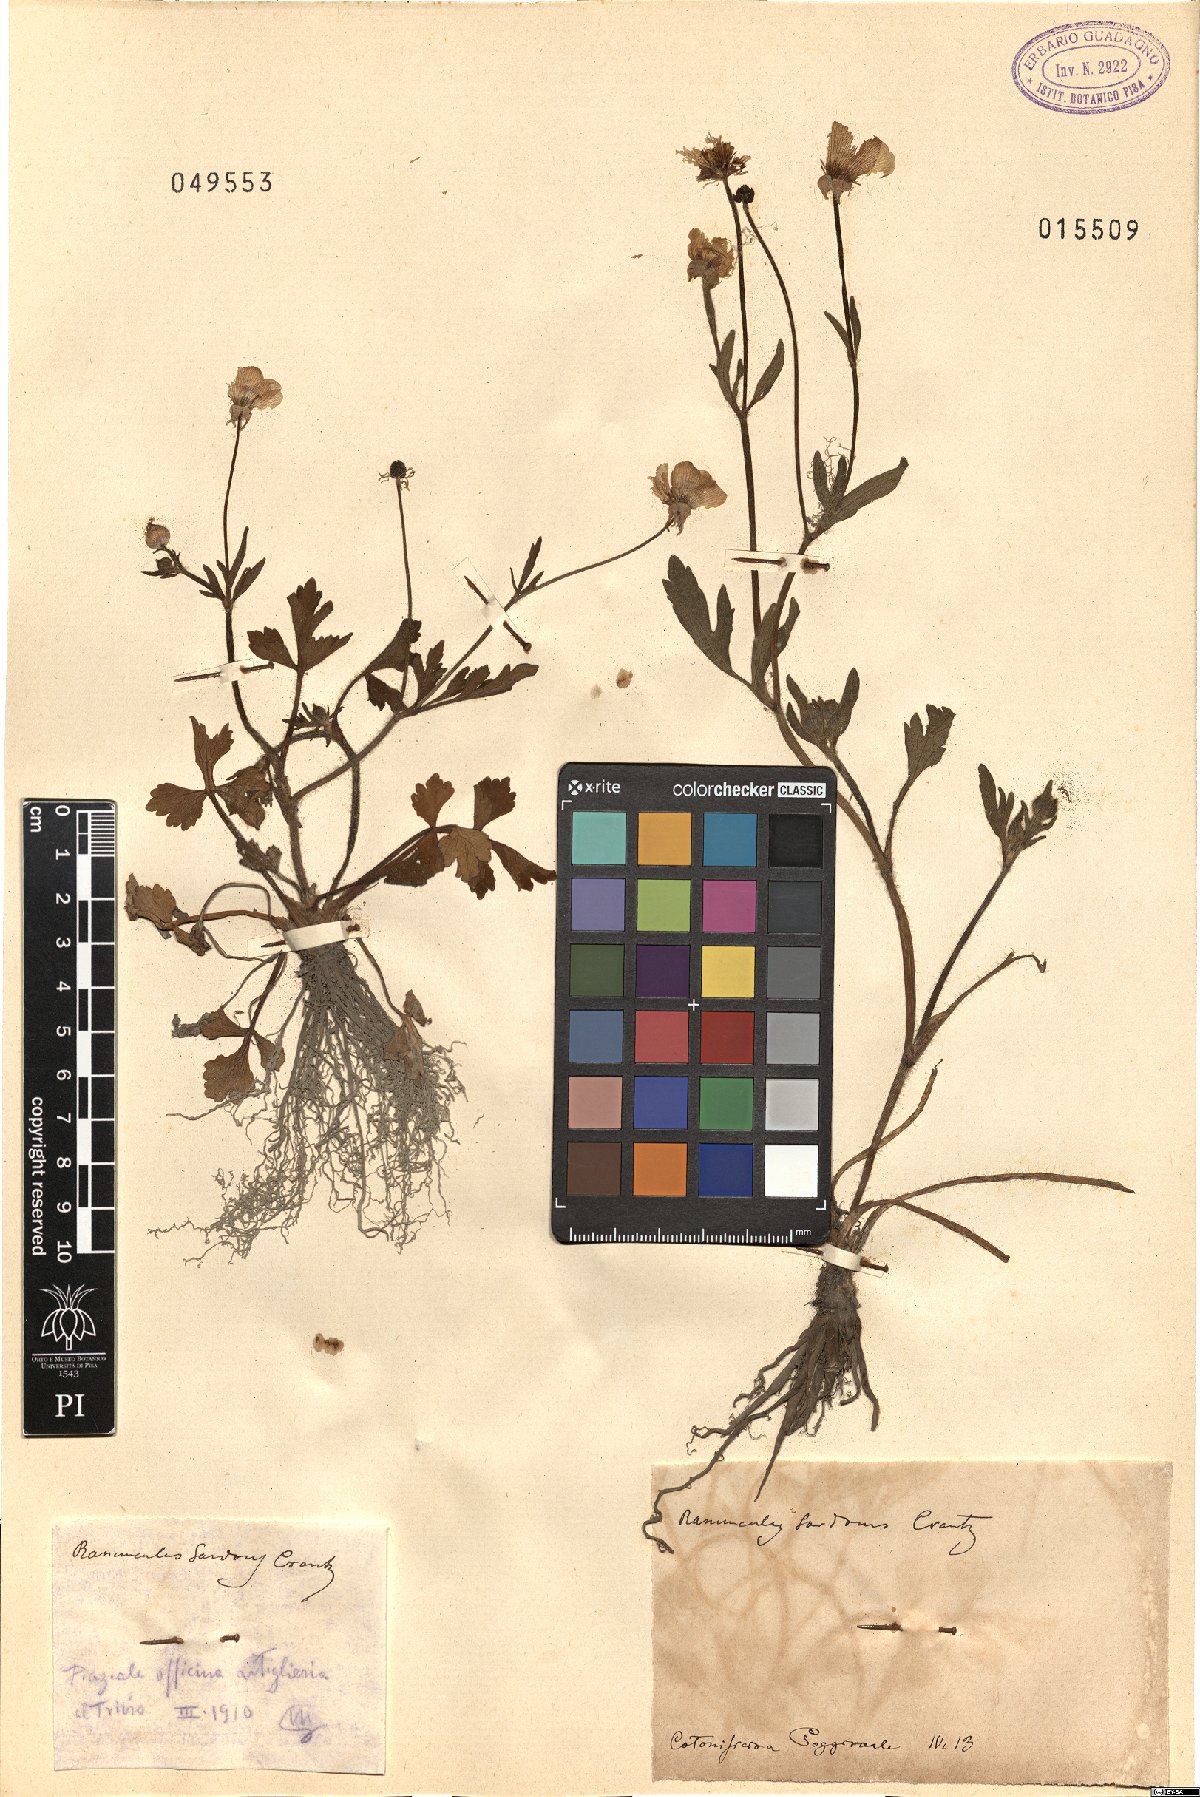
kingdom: Plantae
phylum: Tracheophyta
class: Magnoliopsida
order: Ranunculales
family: Ranunculaceae
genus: Ranunculus
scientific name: Ranunculus sardous
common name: Hairy buttercup
